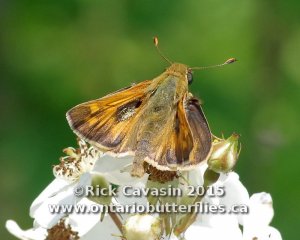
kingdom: Animalia
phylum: Arthropoda
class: Insecta
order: Lepidoptera
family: Hesperiidae
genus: Atalopedes
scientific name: Atalopedes campestris
